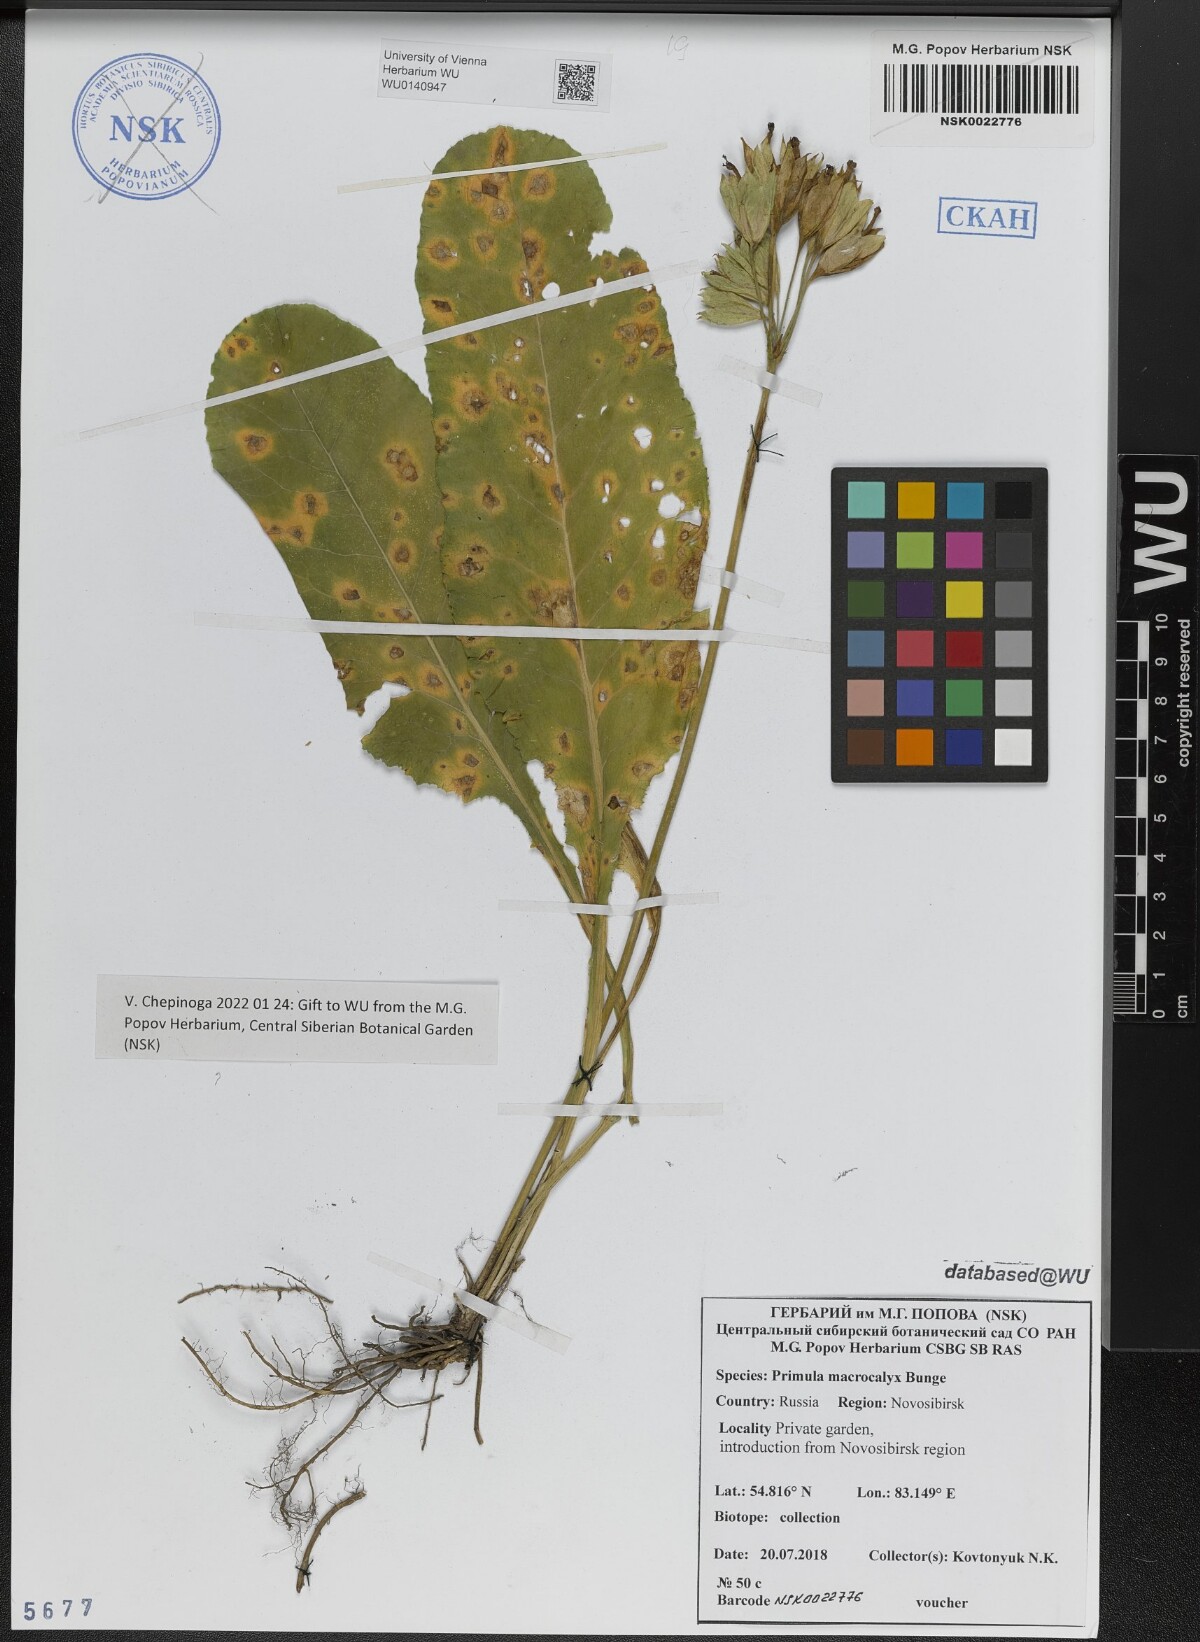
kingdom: Plantae
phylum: Tracheophyta
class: Magnoliopsida
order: Ericales
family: Primulaceae
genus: Primula
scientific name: Primula veris
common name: Cowslip
